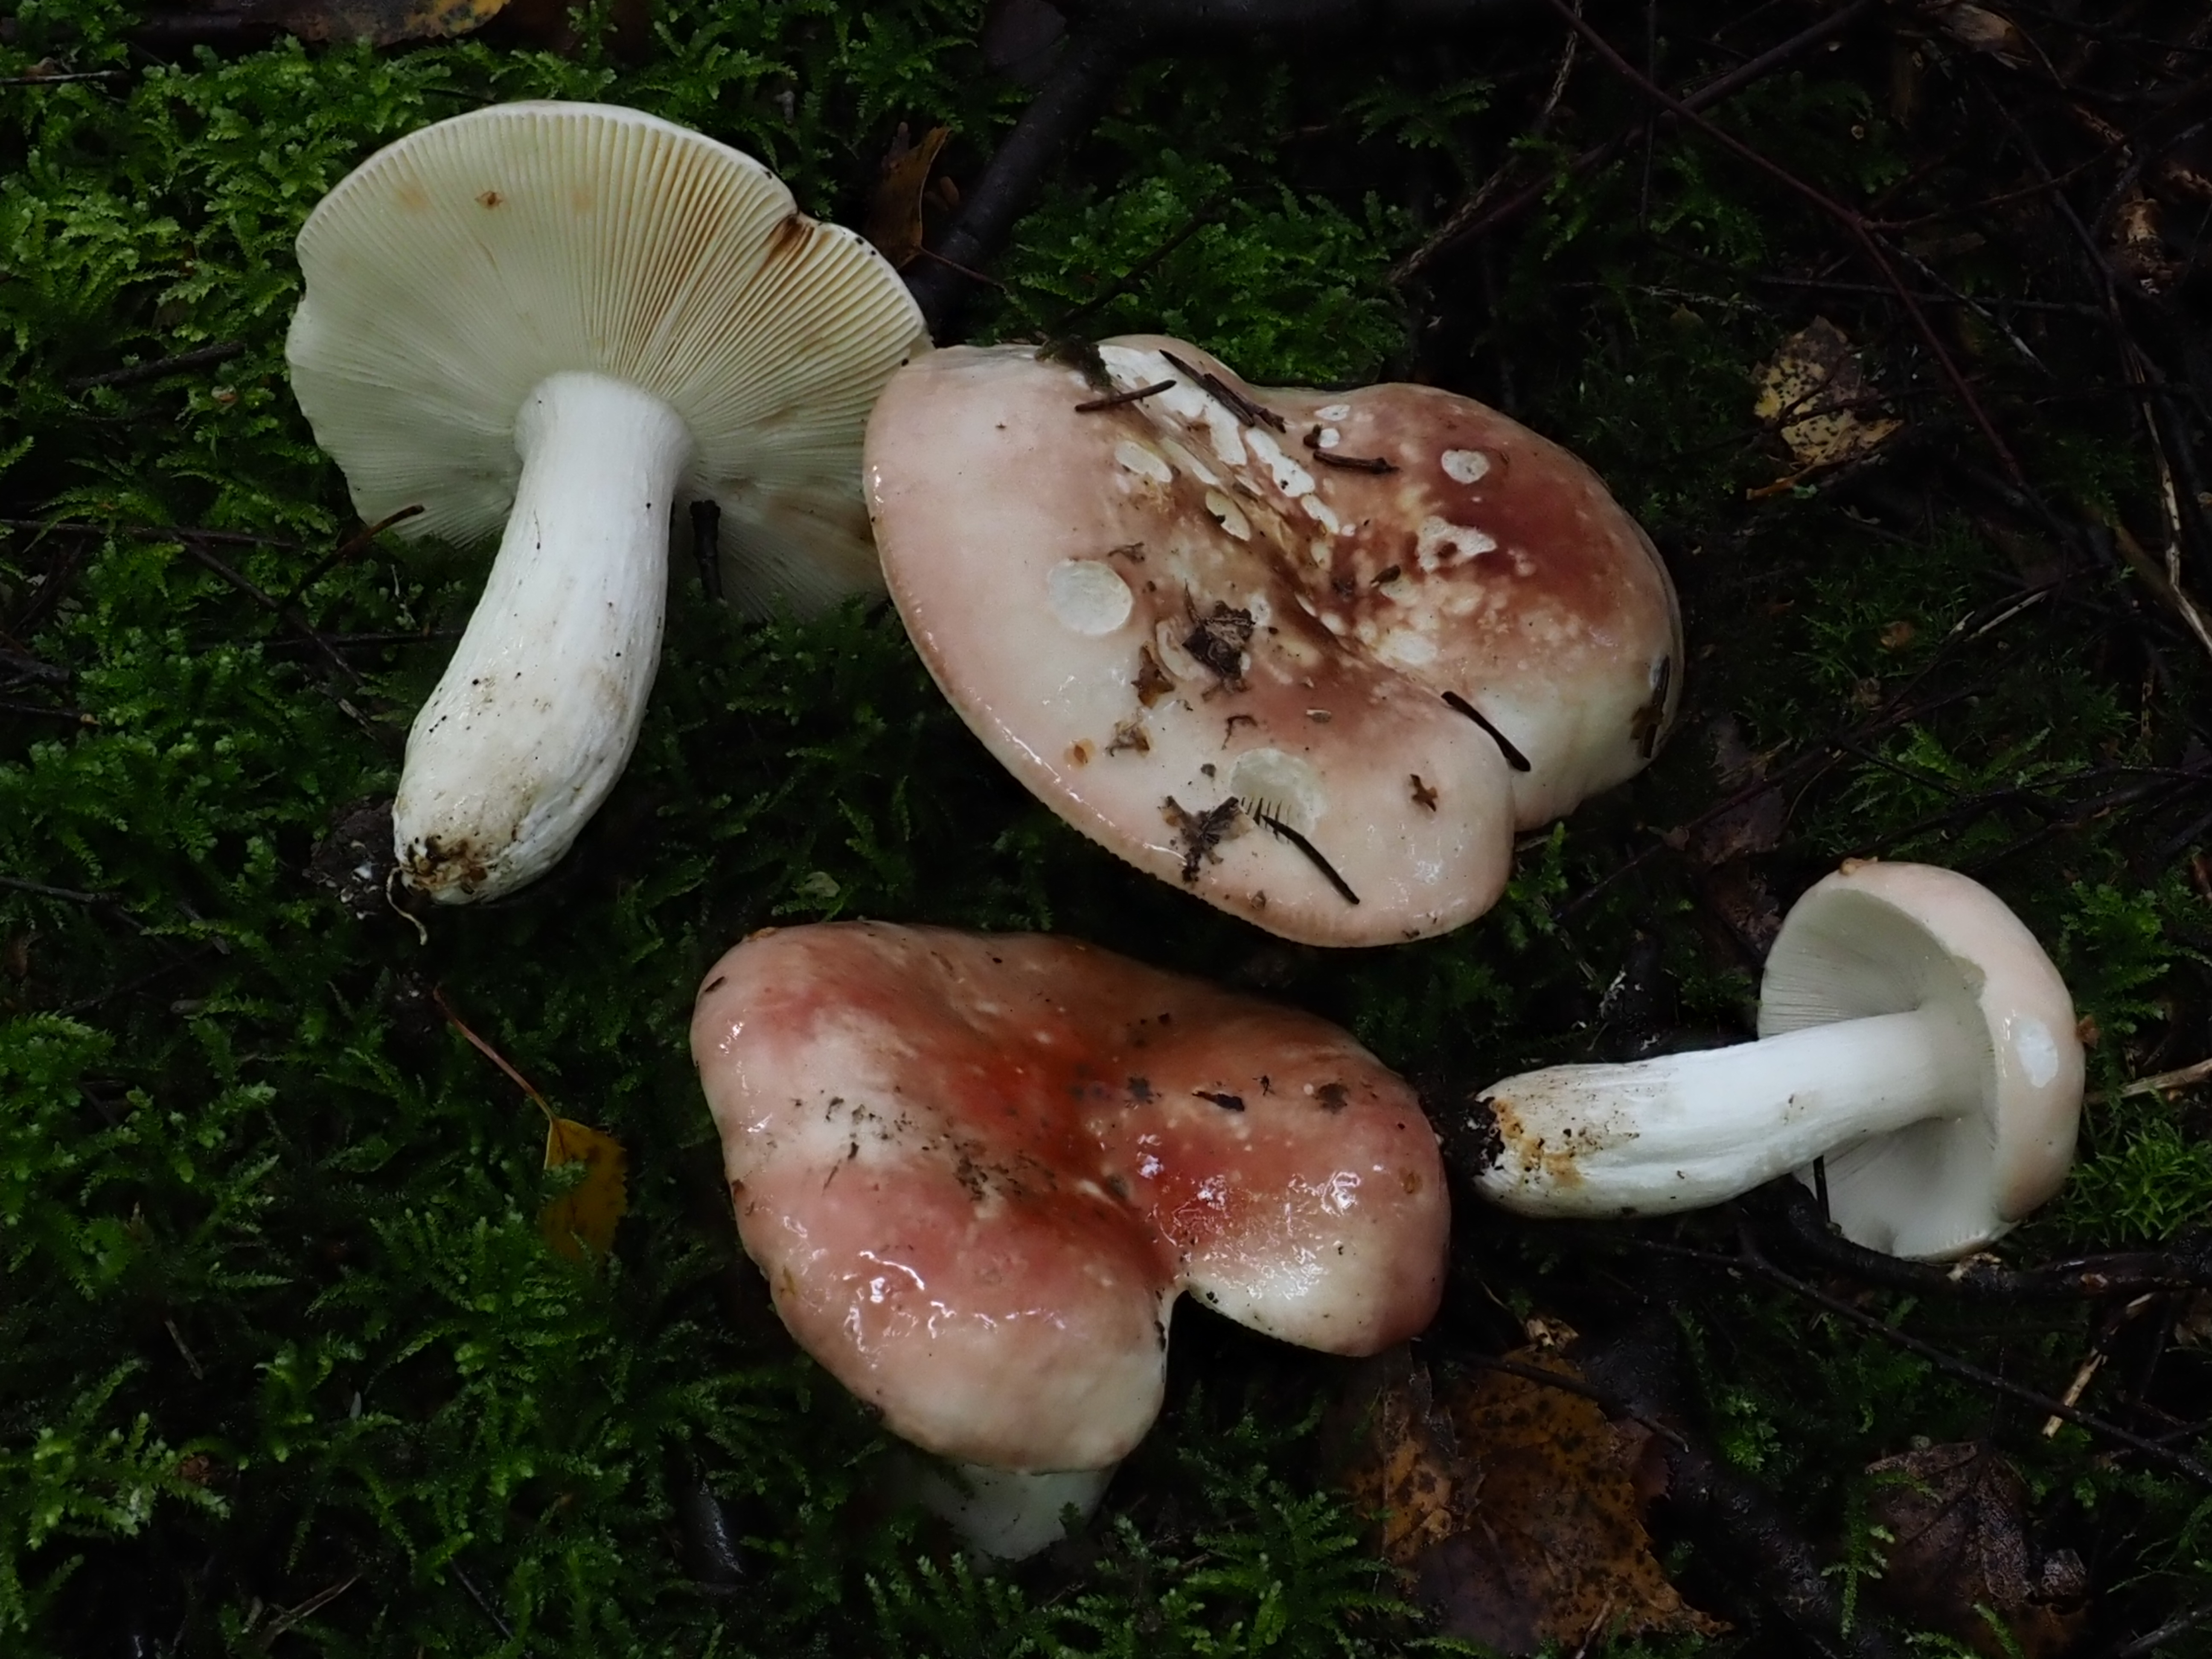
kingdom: Fungi
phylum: Basidiomycota
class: Agaricomycetes
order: Russulales
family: Russulaceae
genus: Russula
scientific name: Russula intermedia
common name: Intermediate brittlegill
